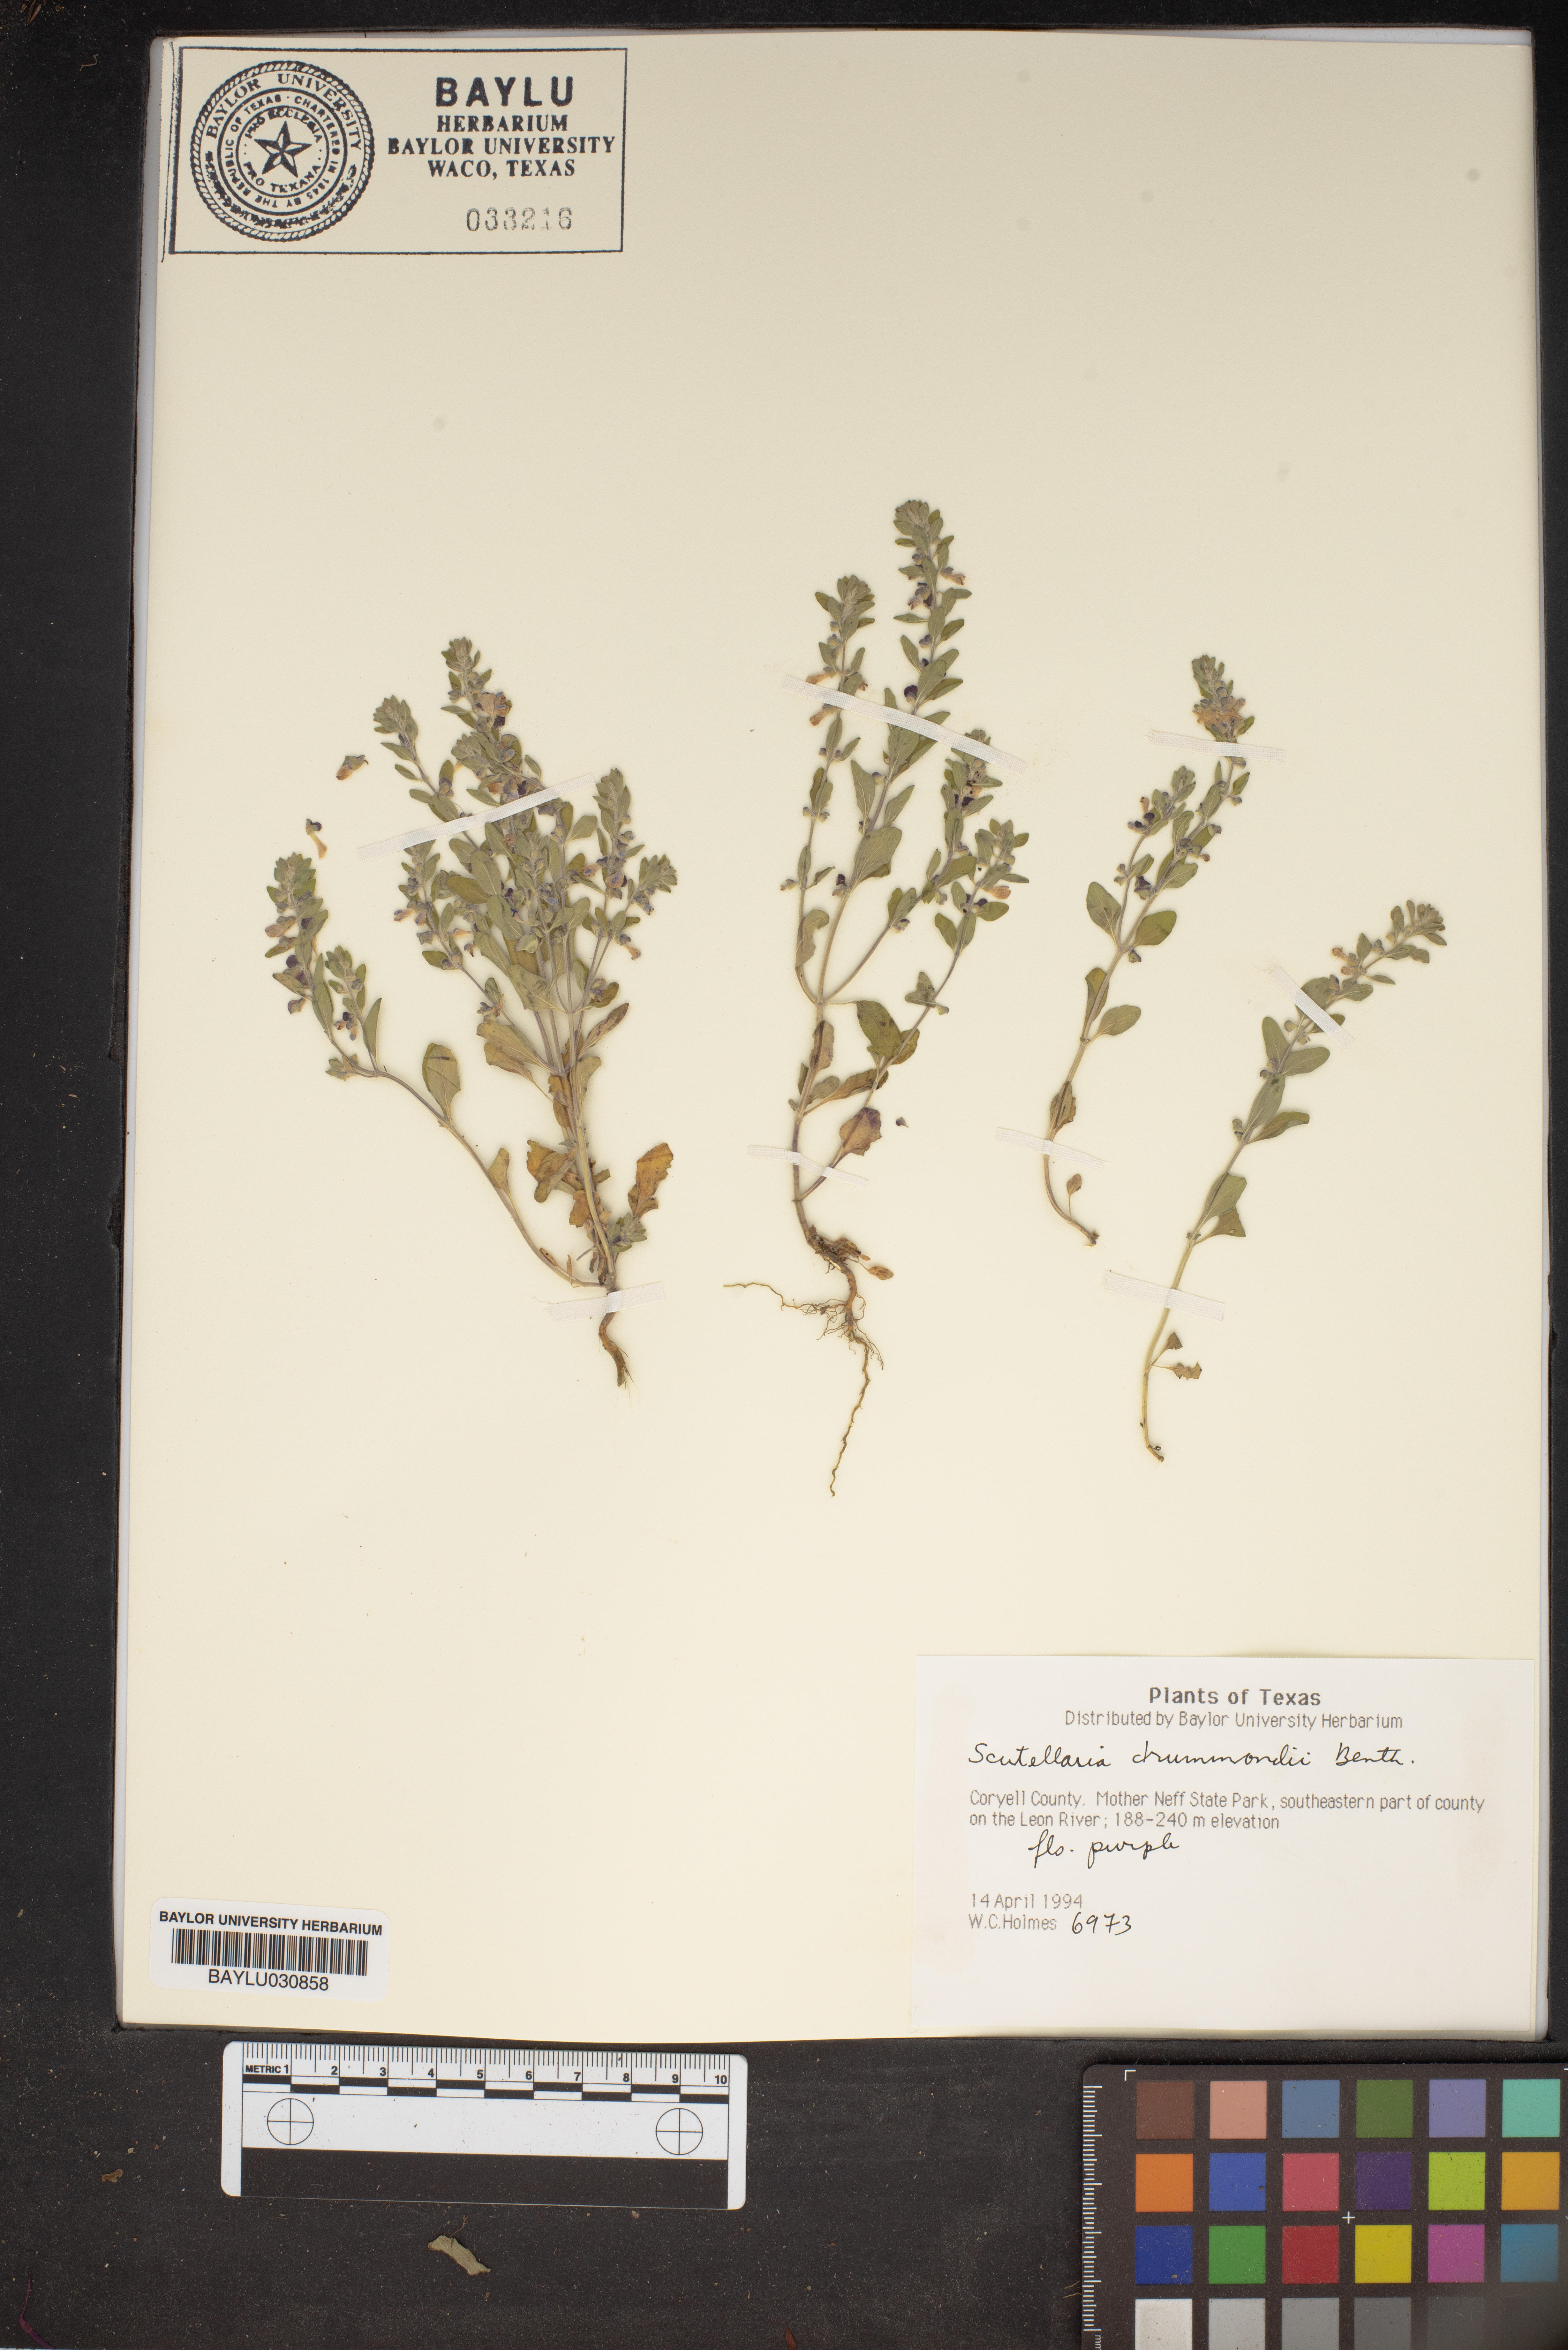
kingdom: Plantae
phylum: Tracheophyta
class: Magnoliopsida
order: Lamiales
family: Lamiaceae
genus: Scutellaria
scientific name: Scutellaria drummondii
